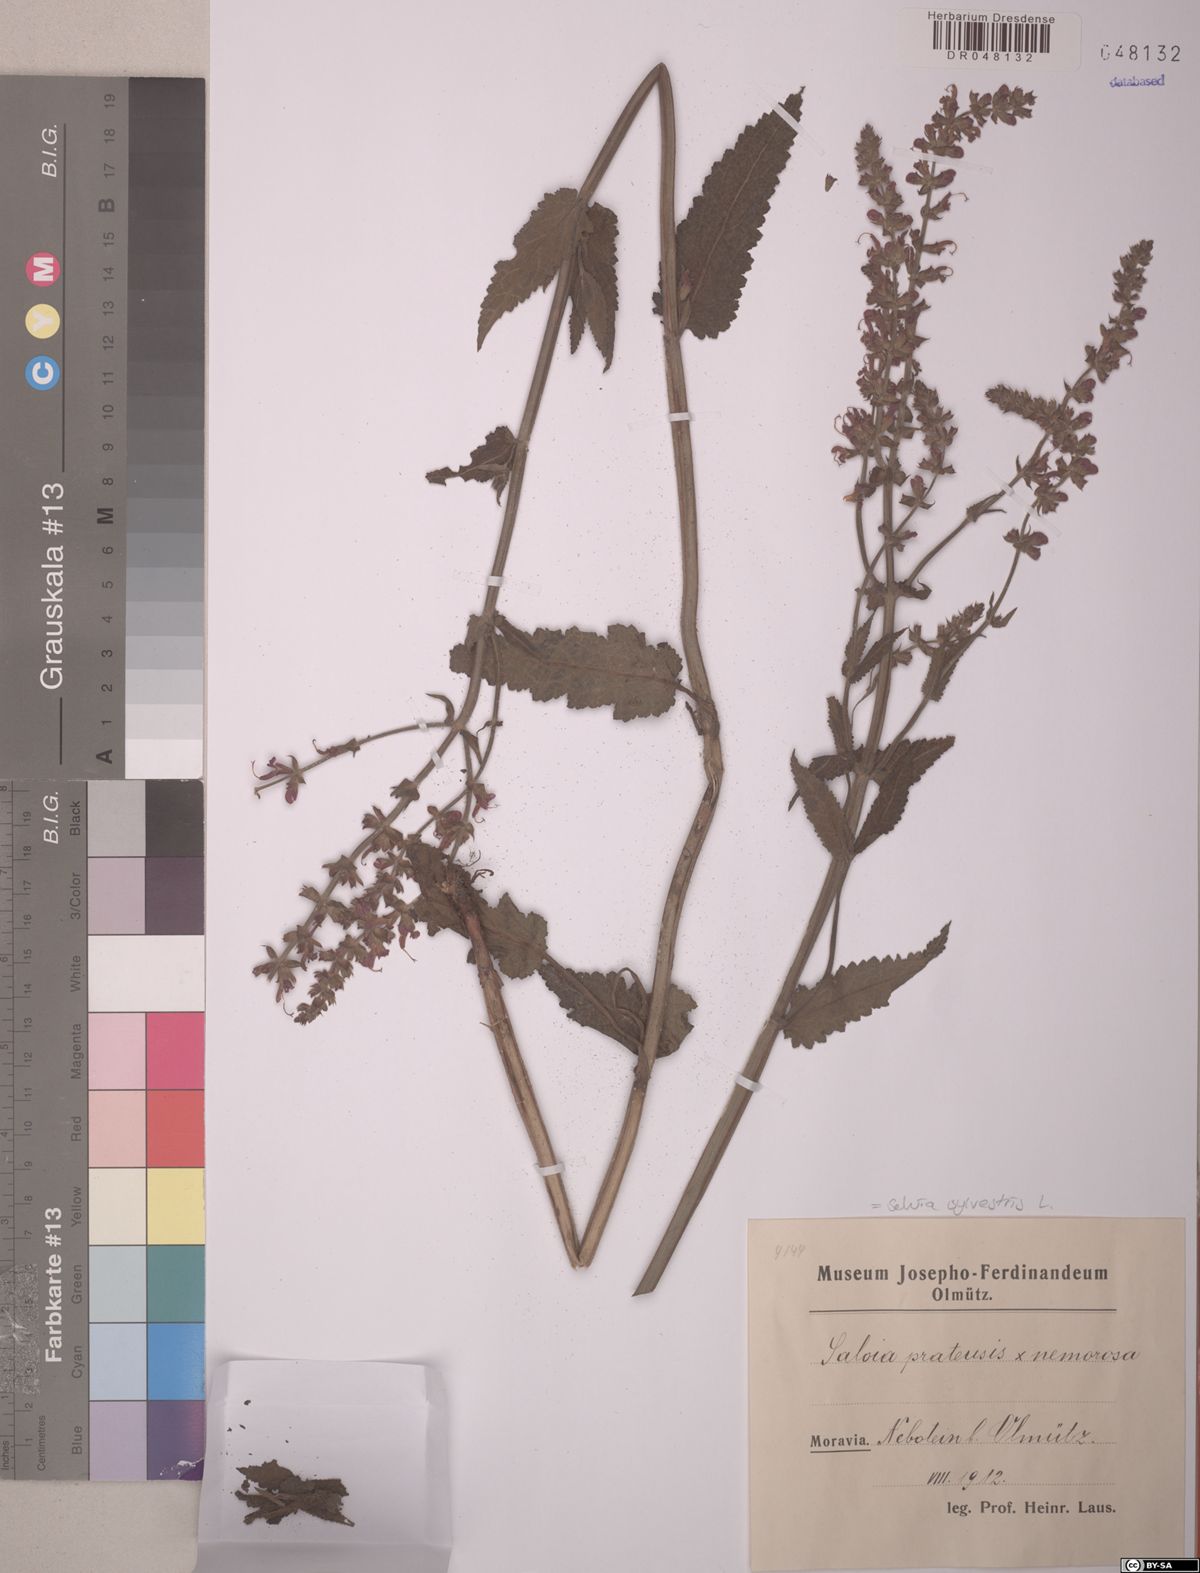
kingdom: Plantae
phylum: Tracheophyta
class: Magnoliopsida
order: Lamiales
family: Lamiaceae
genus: Salvia
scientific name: Salvia sylvestris
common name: Woodland sage
